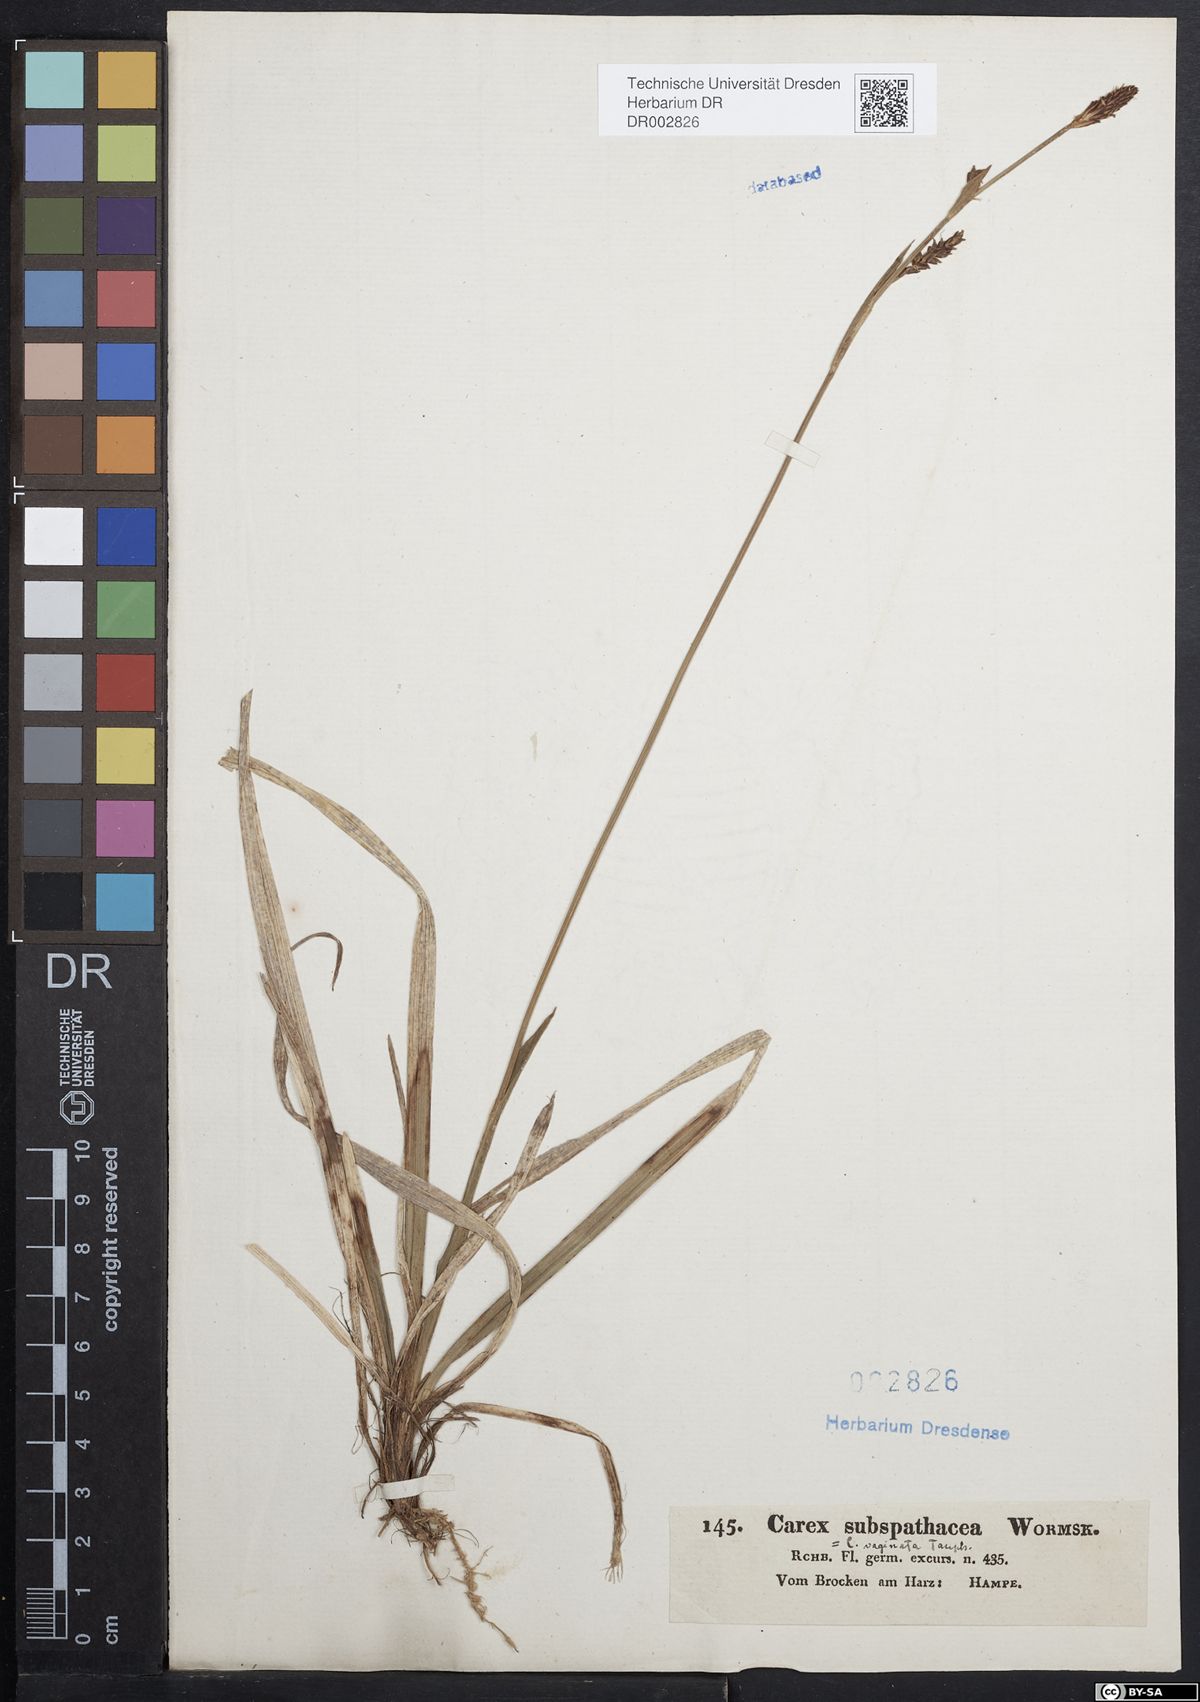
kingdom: Plantae
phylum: Tracheophyta
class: Liliopsida
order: Poales
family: Cyperaceae
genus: Carex
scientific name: Carex vaginata
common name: Sheathed sedge
